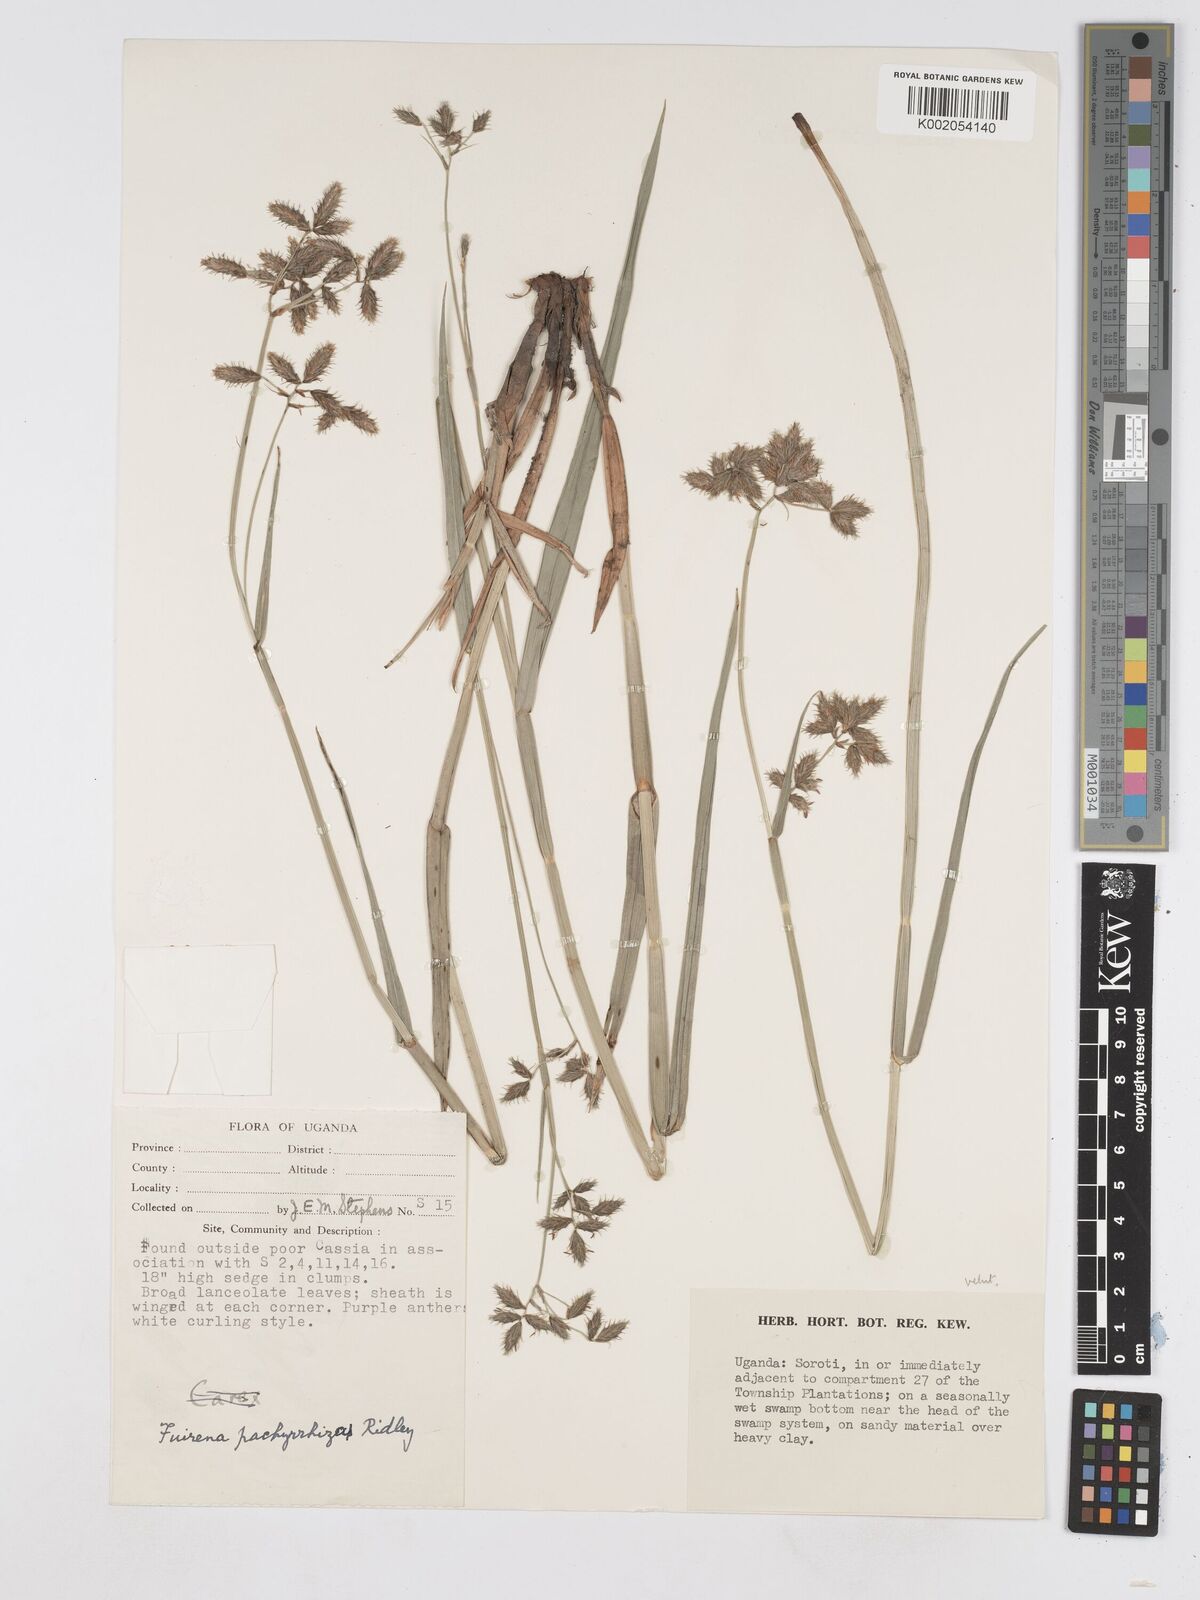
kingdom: Plantae
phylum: Tracheophyta
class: Liliopsida
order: Poales
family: Cyperaceae
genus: Fuirena
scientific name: Fuirena pachyrrhiza
